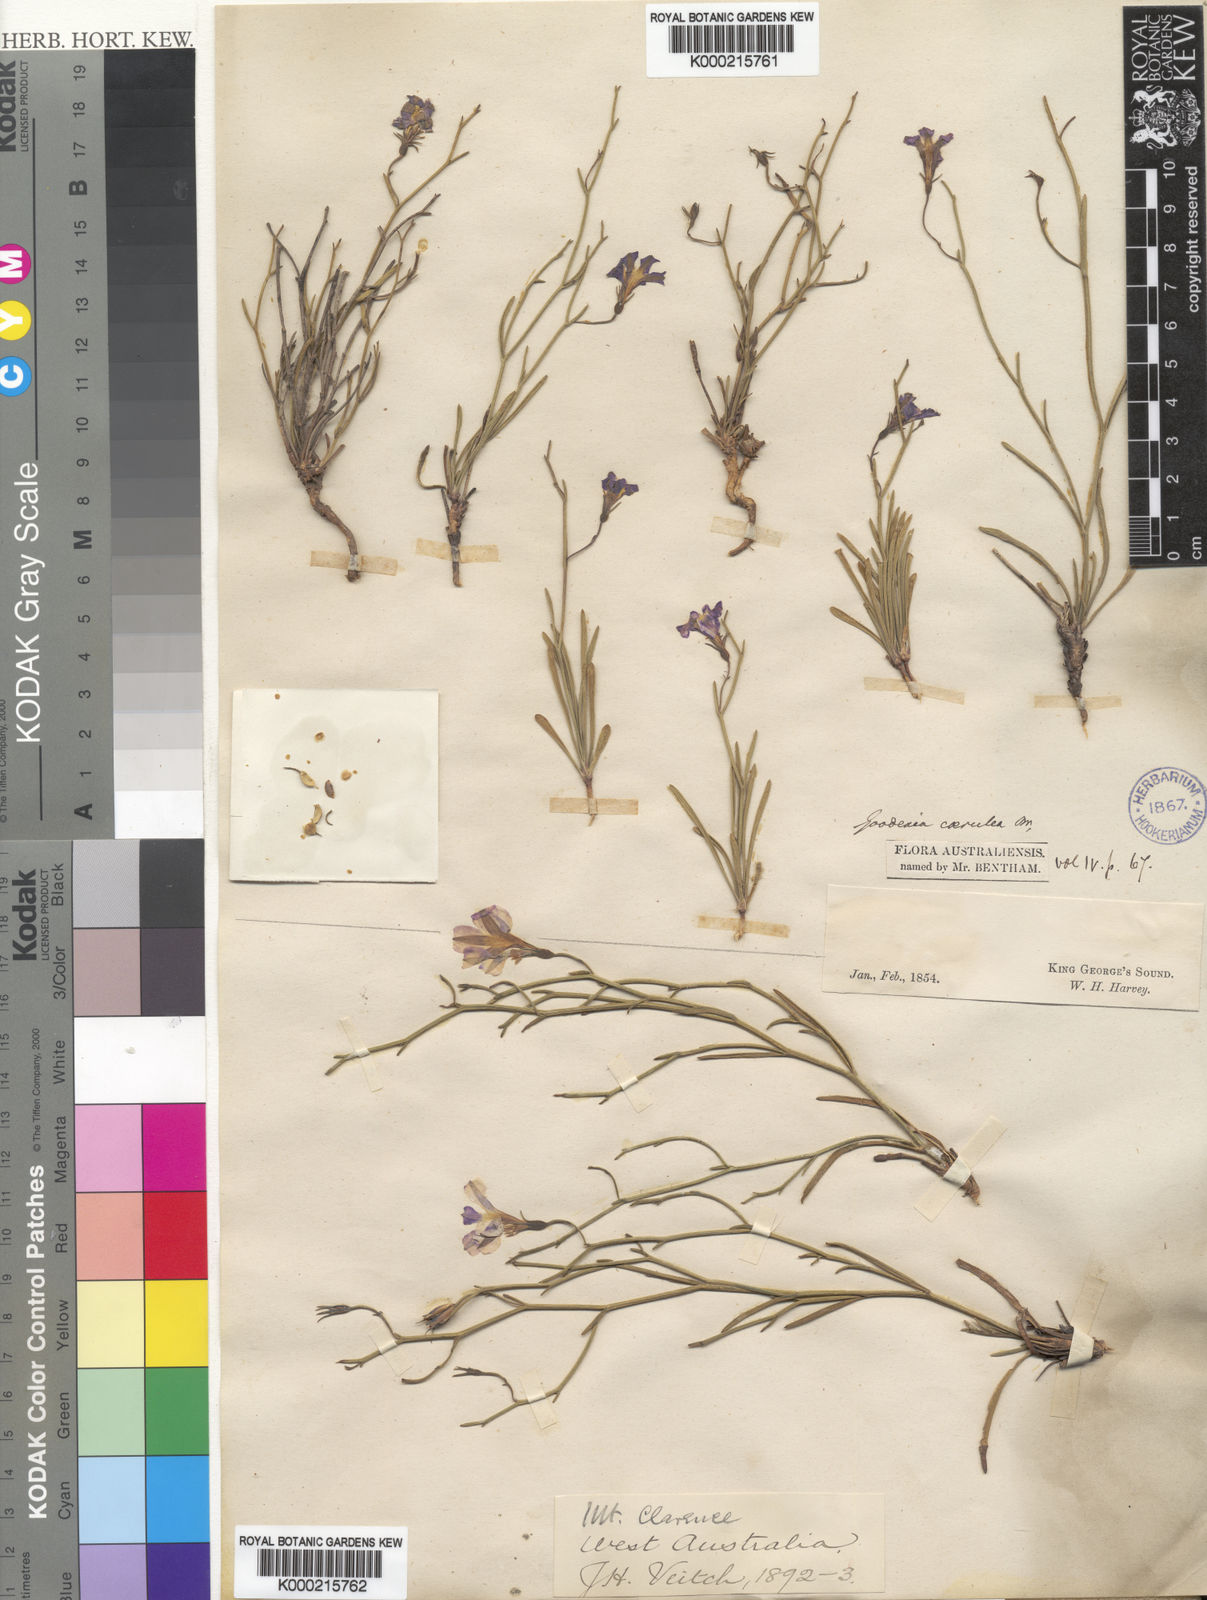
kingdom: Plantae
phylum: Tracheophyta
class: Magnoliopsida
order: Asterales
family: Goodeniaceae
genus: Goodenia
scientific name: Goodenia caerulea
